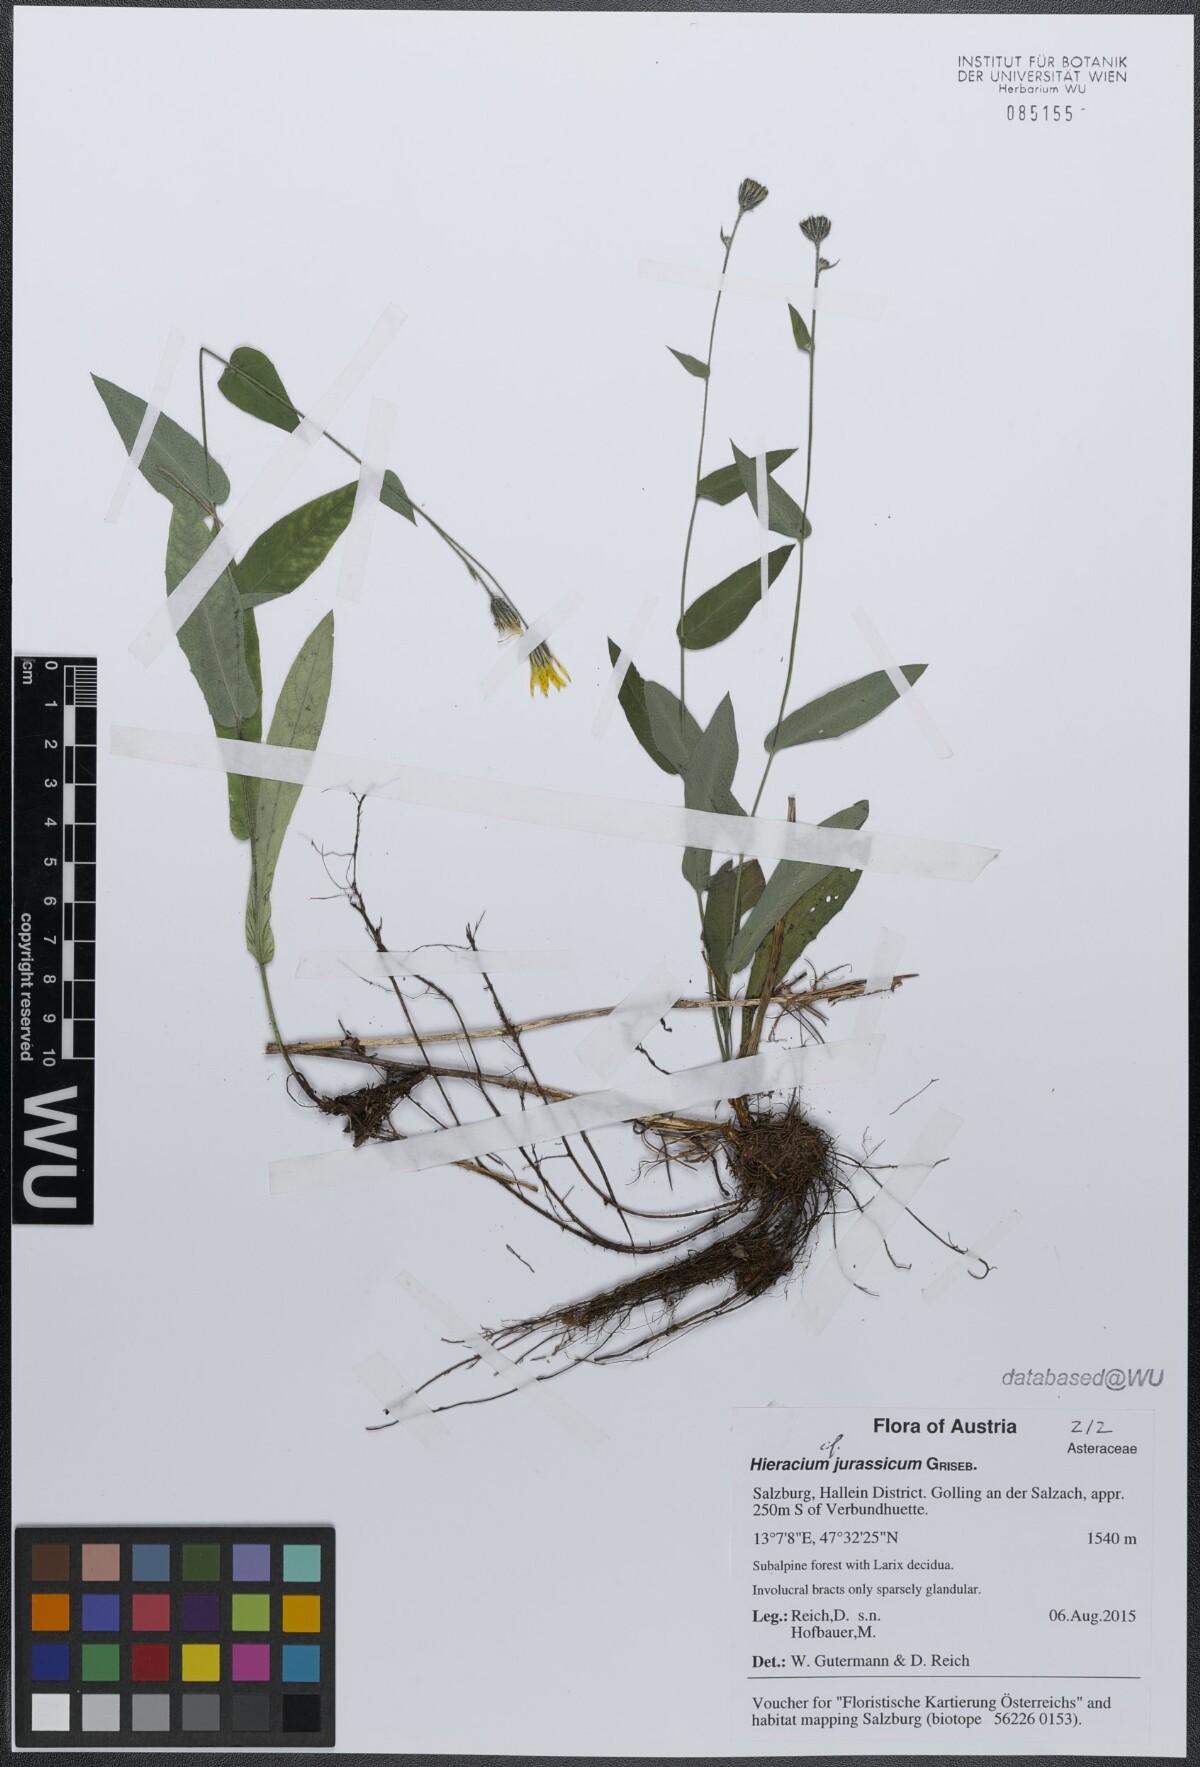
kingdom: Plantae
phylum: Tracheophyta
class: Magnoliopsida
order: Asterales
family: Asteraceae
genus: Hieracium
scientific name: Hieracium jurassicum
